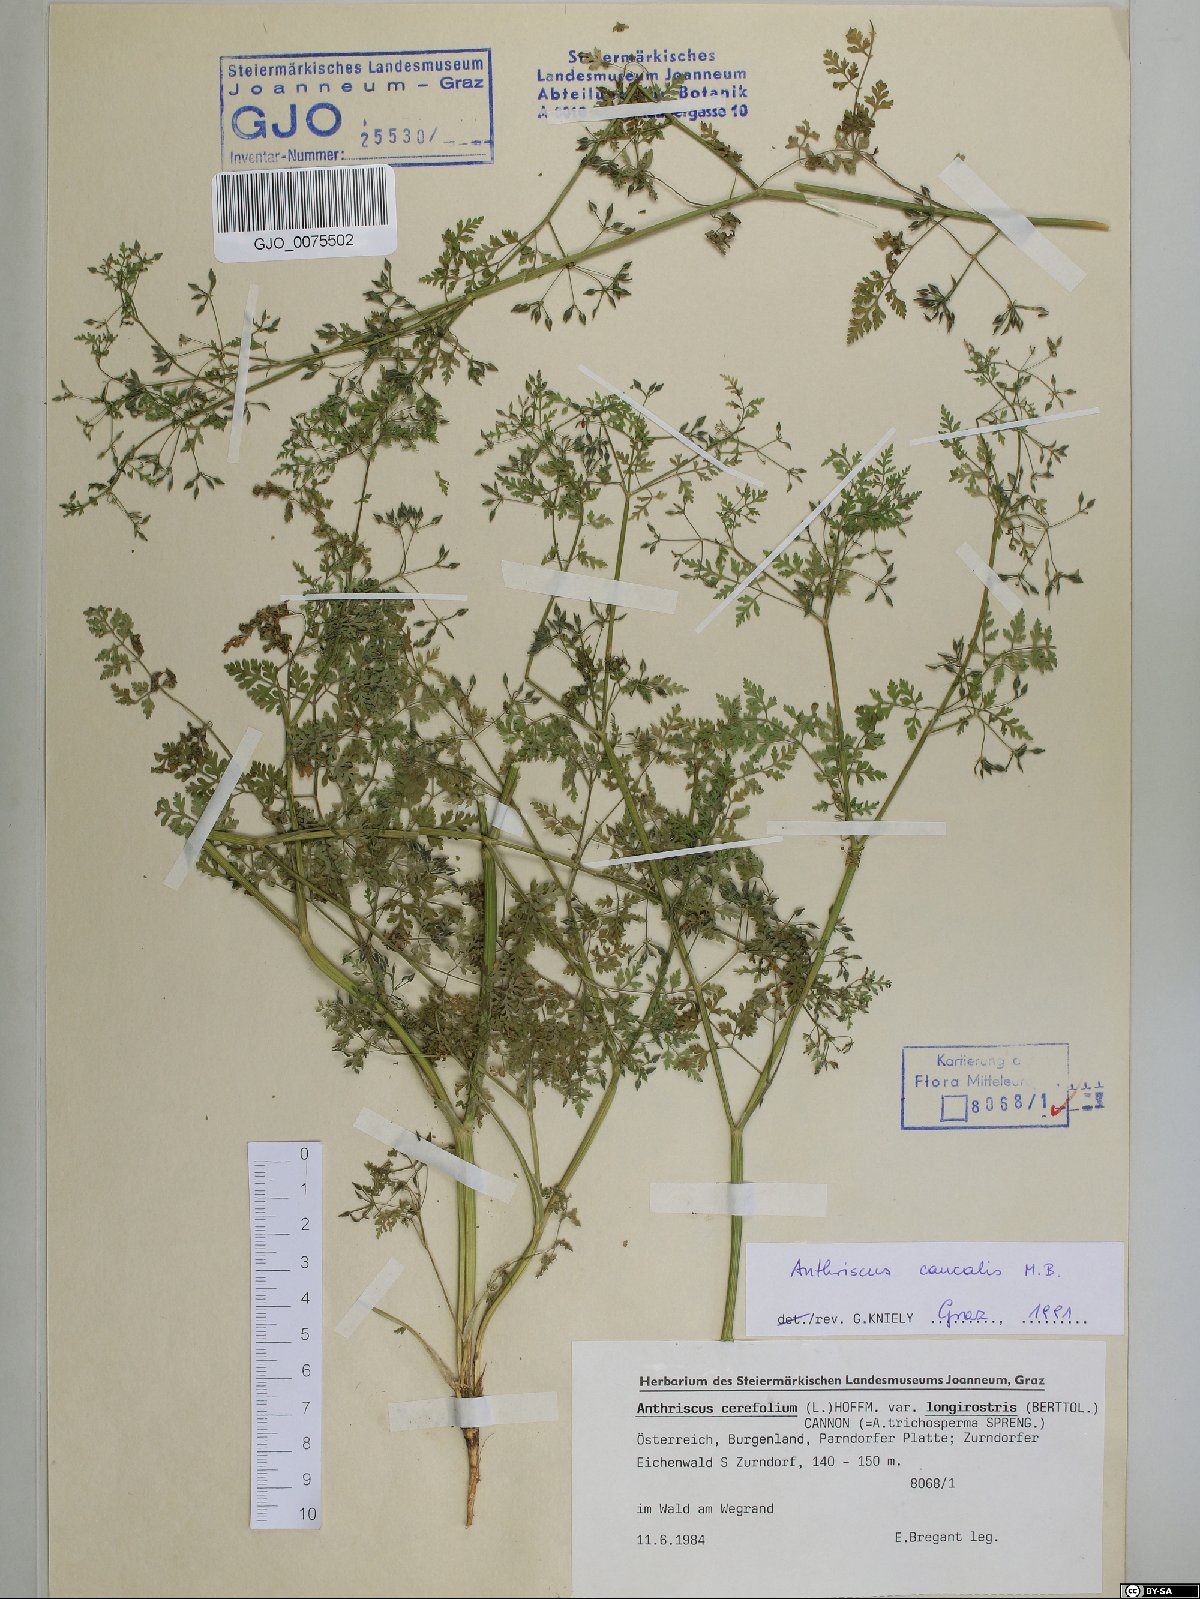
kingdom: Plantae
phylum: Tracheophyta
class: Magnoliopsida
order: Apiales
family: Apiaceae
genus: Anthriscus
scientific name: Anthriscus caucalis
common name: Bur chervil
